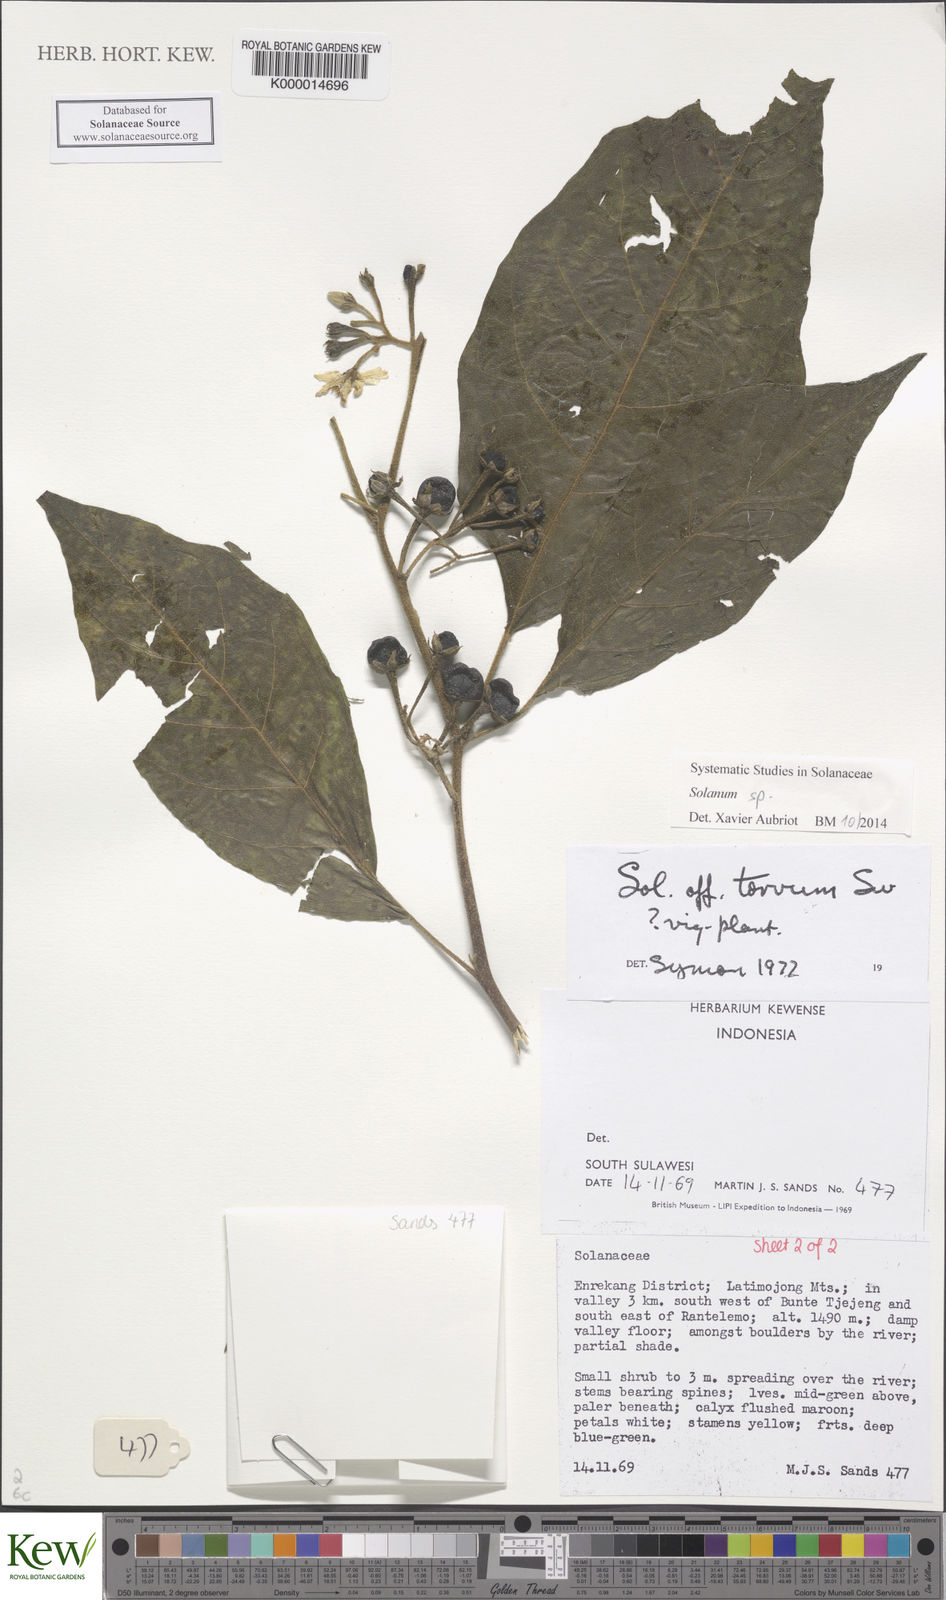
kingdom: Plantae
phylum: Tracheophyta
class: Magnoliopsida
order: Solanales
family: Solanaceae
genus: Solanum
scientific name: Solanum pubescens
